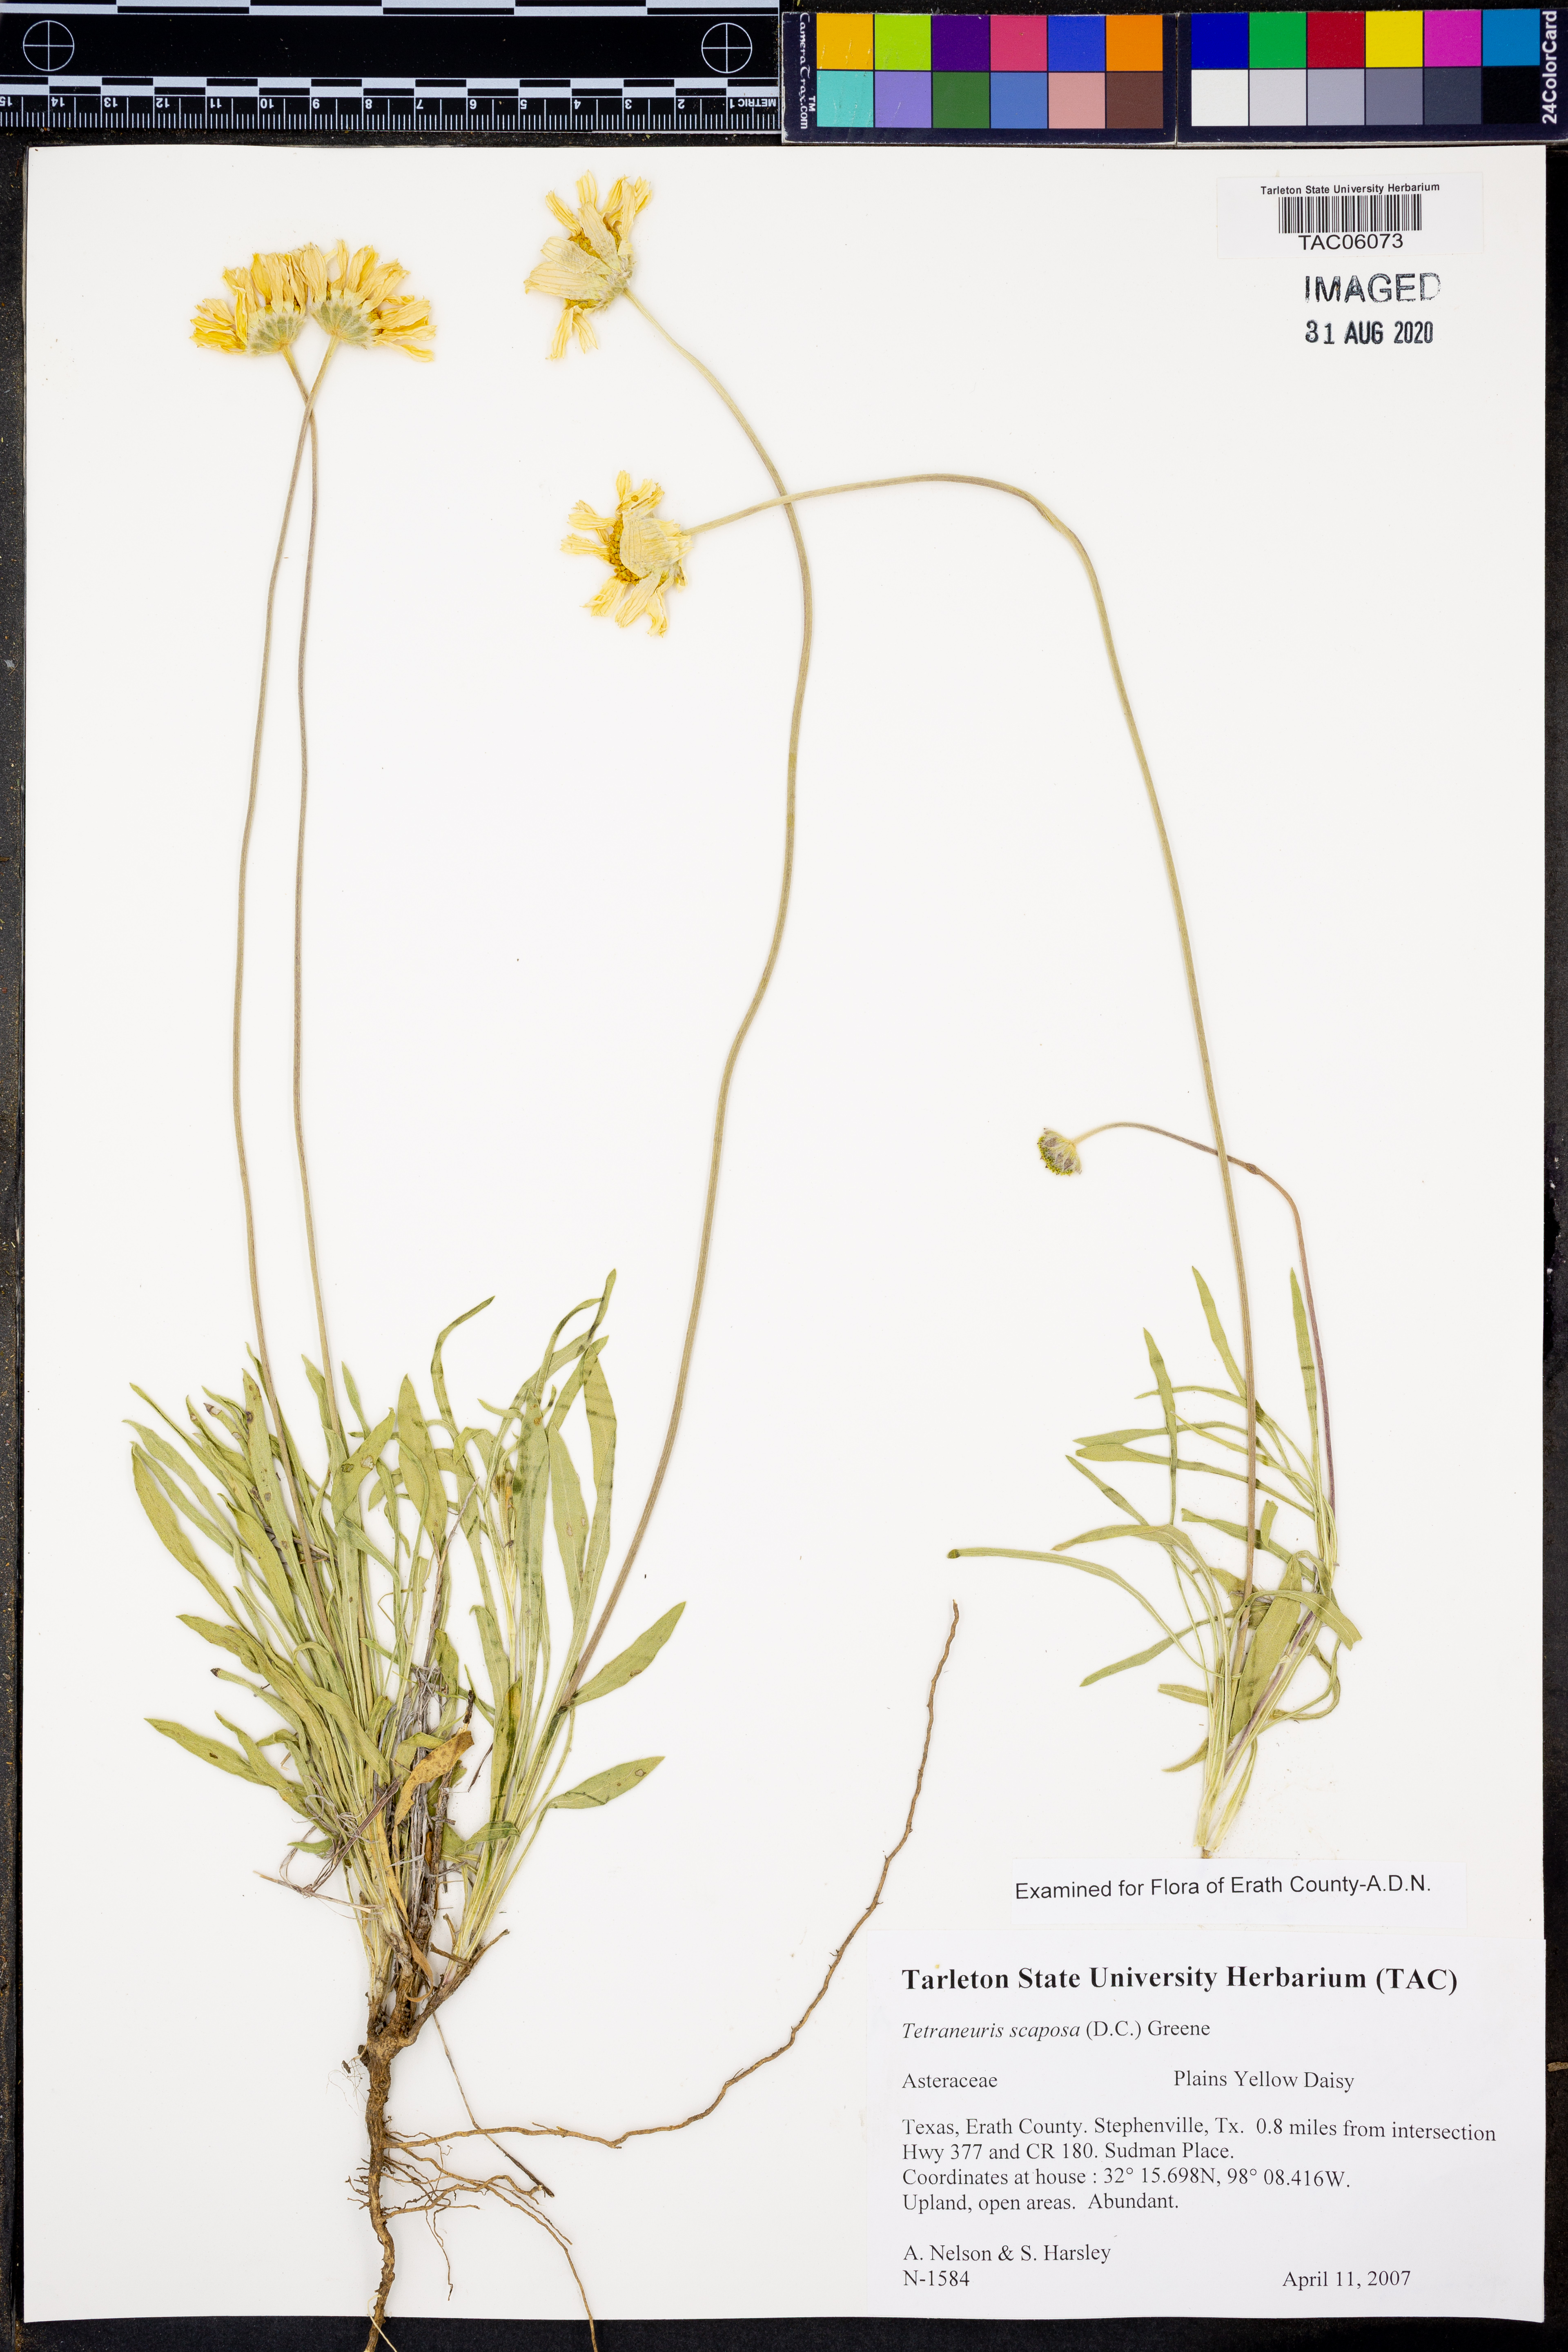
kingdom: Plantae
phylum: Tracheophyta
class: Magnoliopsida
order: Asterales
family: Asteraceae
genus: Tetraneuris
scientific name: Tetraneuris scaposa
